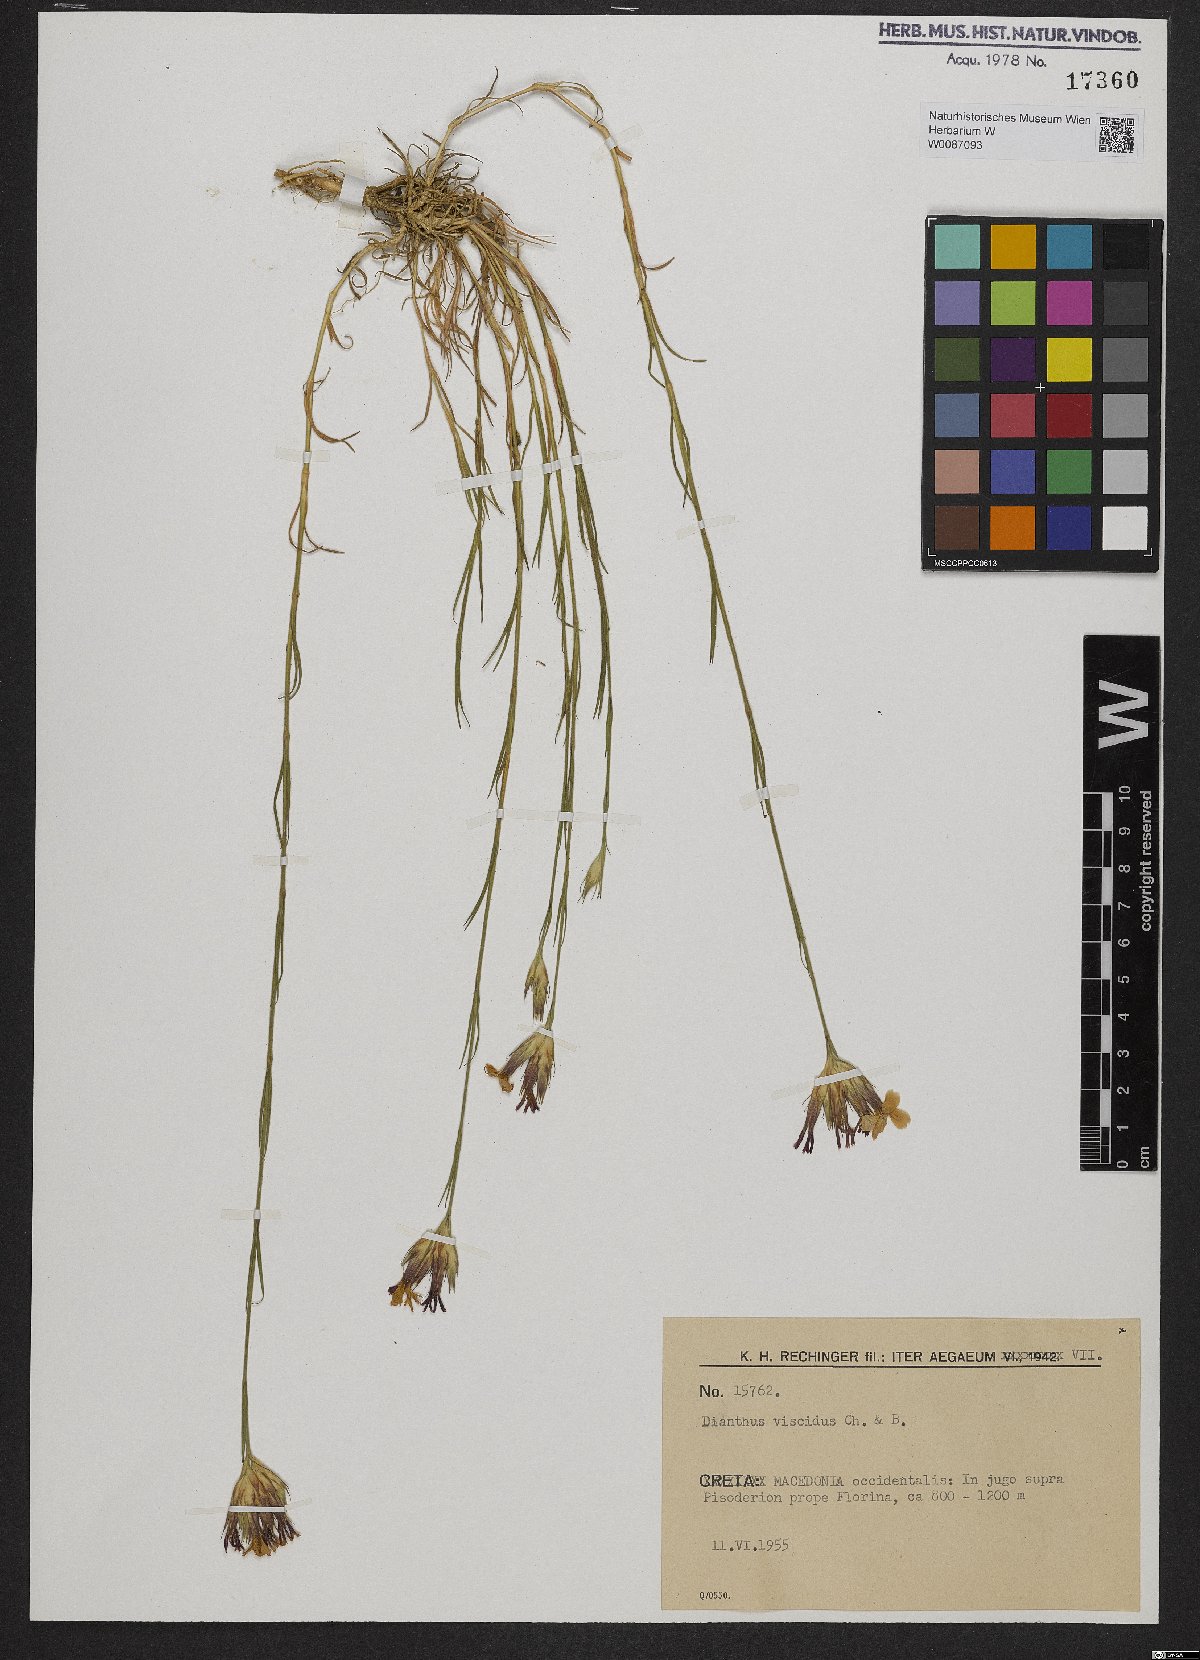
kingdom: Plantae
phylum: Tracheophyta
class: Magnoliopsida
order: Caryophyllales
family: Caryophyllaceae
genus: Dianthus
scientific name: Dianthus viscidus
